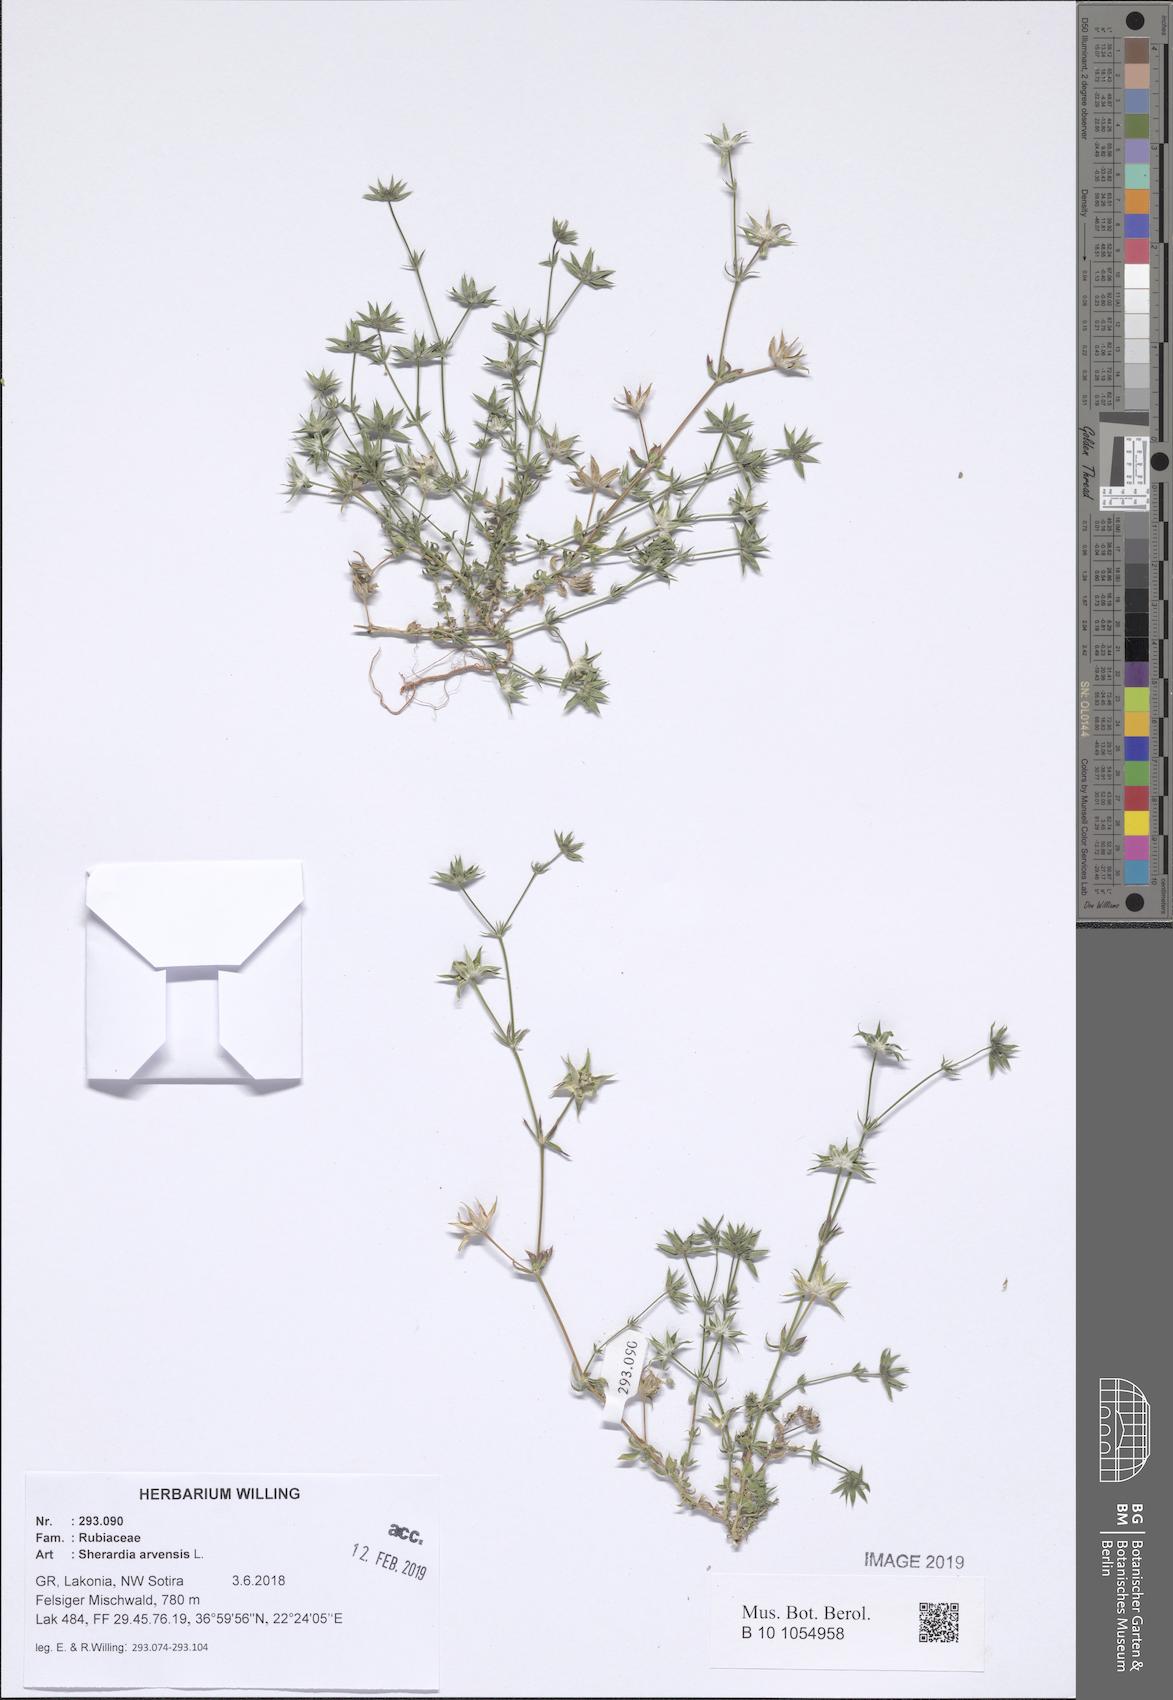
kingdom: Plantae
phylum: Tracheophyta
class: Magnoliopsida
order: Gentianales
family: Rubiaceae
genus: Sherardia
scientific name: Sherardia arvensis
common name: Field madder
